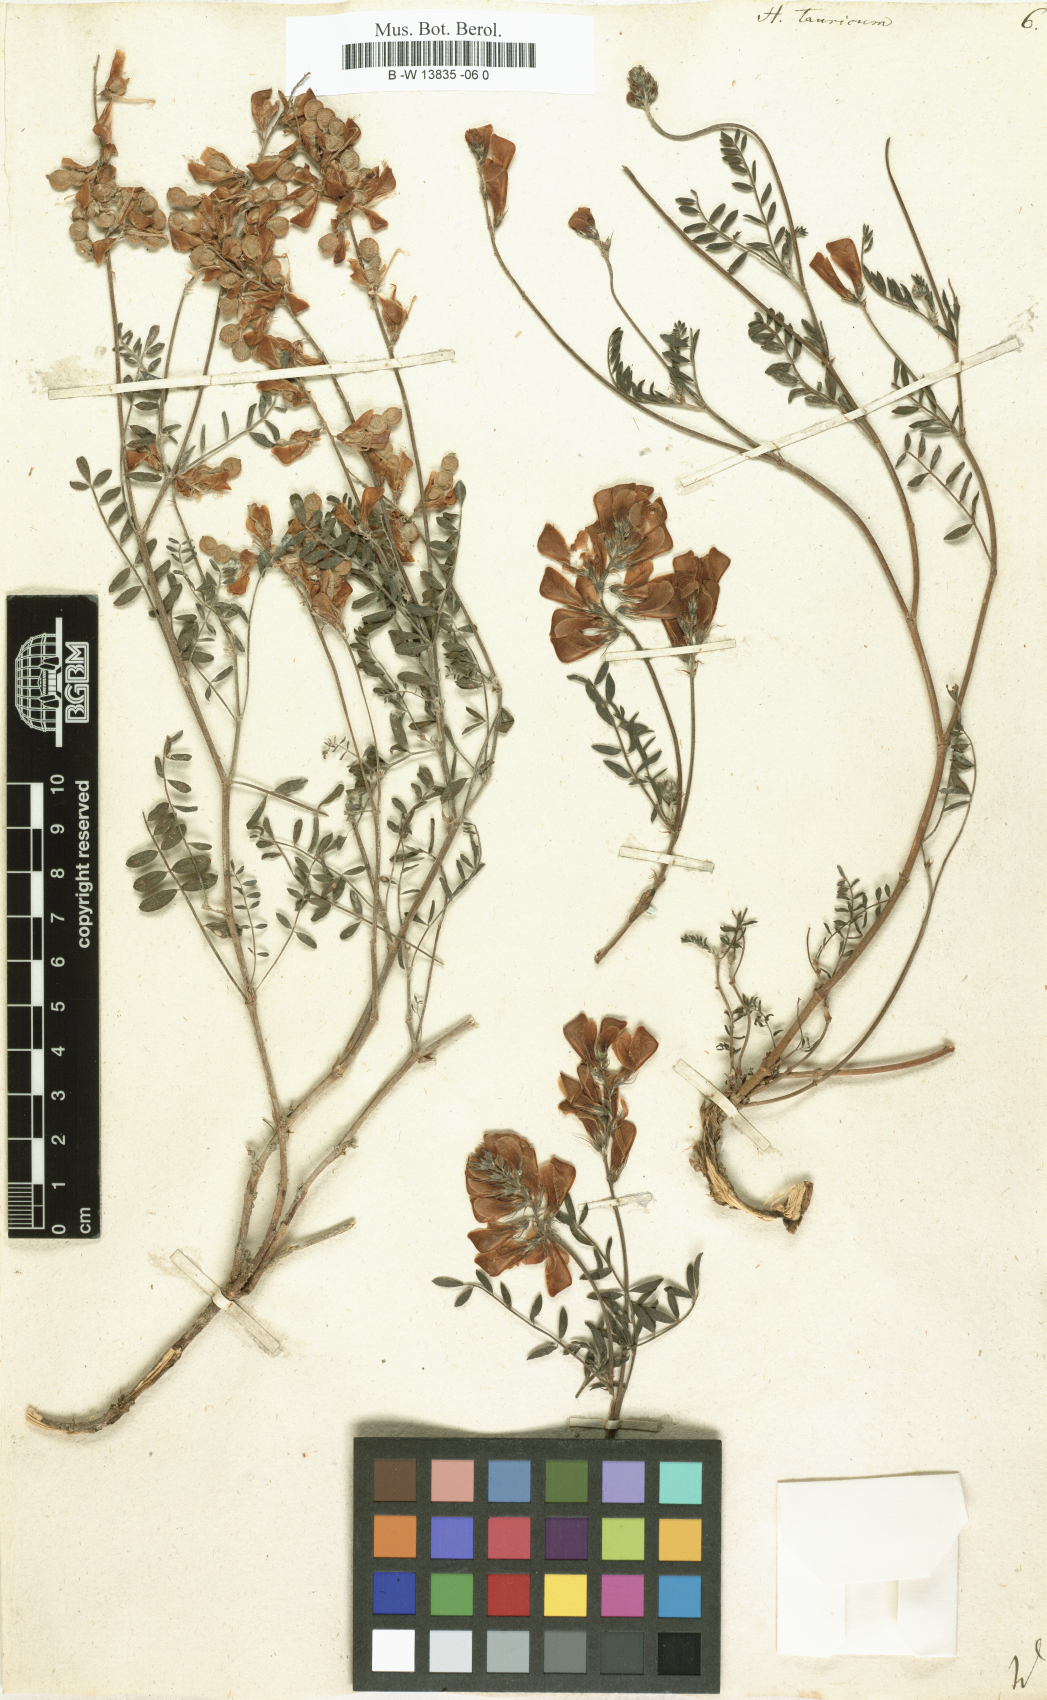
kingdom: Plantae
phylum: Tracheophyta
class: Magnoliopsida
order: Fabales
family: Fabaceae
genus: Hedysarum
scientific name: Hedysarum tauricum
